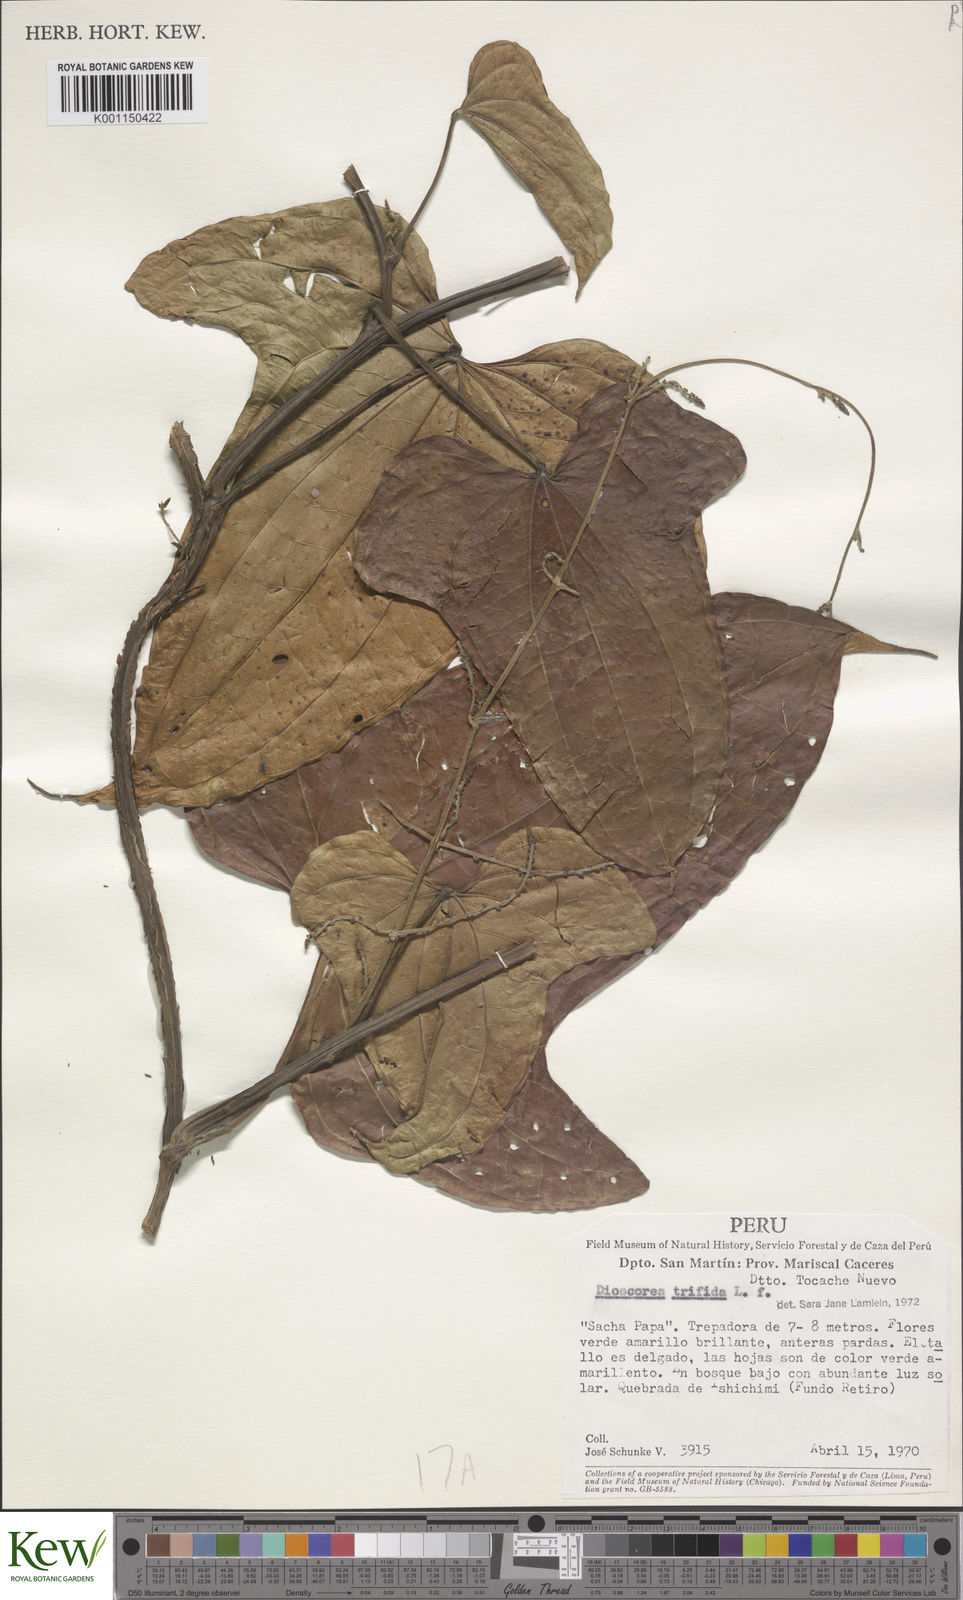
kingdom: Plantae
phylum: Tracheophyta
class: Liliopsida
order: Dioscoreales
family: Dioscoreaceae
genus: Dioscorea
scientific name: Dioscorea trifida
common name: Cush-cush
